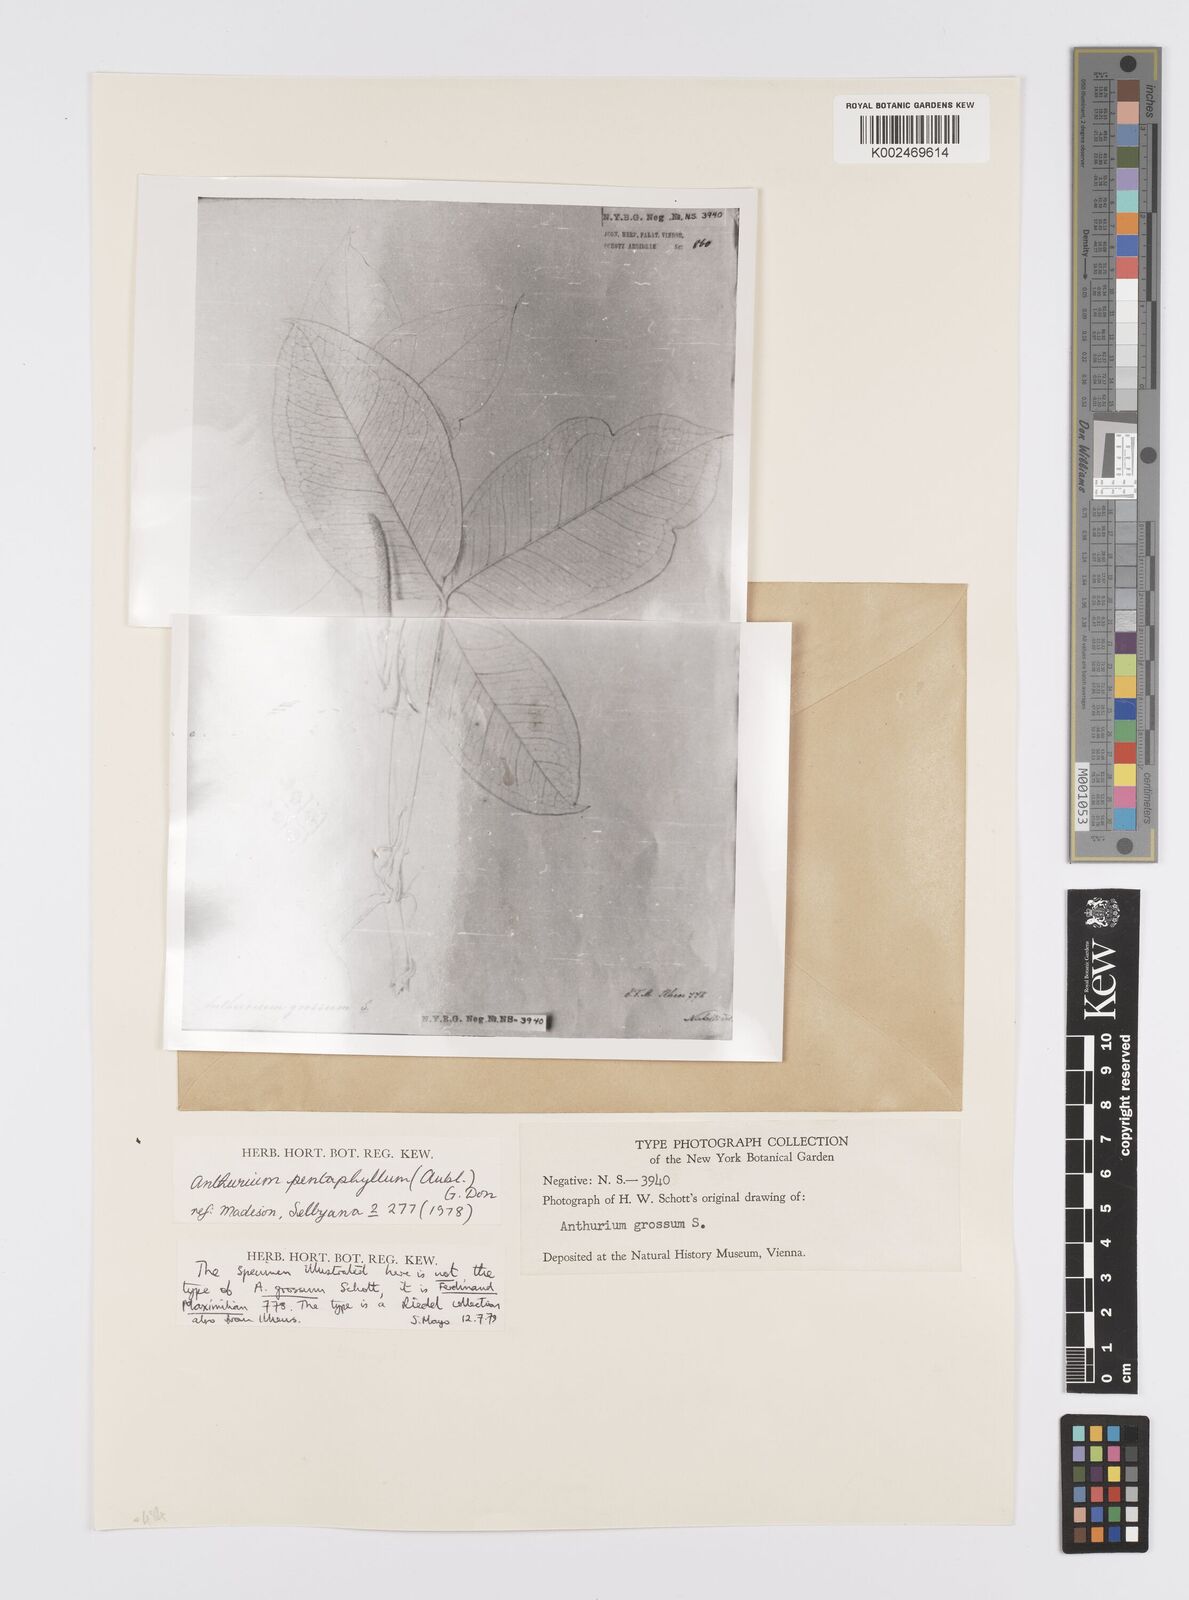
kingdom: Plantae
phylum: Tracheophyta
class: Liliopsida
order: Alismatales
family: Araceae
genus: Anthurium
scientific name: Anthurium pentaphyllum
